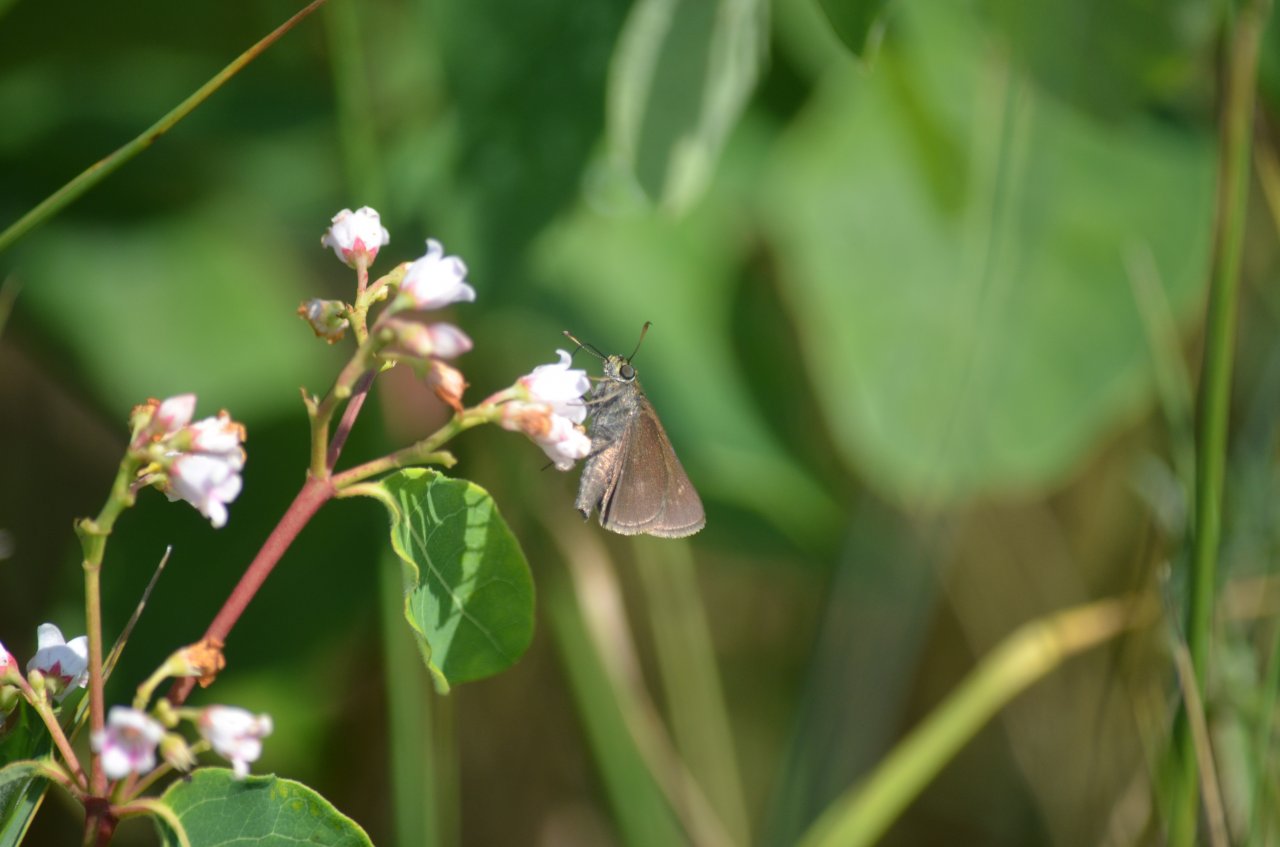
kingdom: Animalia
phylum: Arthropoda
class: Insecta
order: Lepidoptera
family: Hesperiidae
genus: Euphyes
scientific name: Euphyes vestris
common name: Dun Skipper
